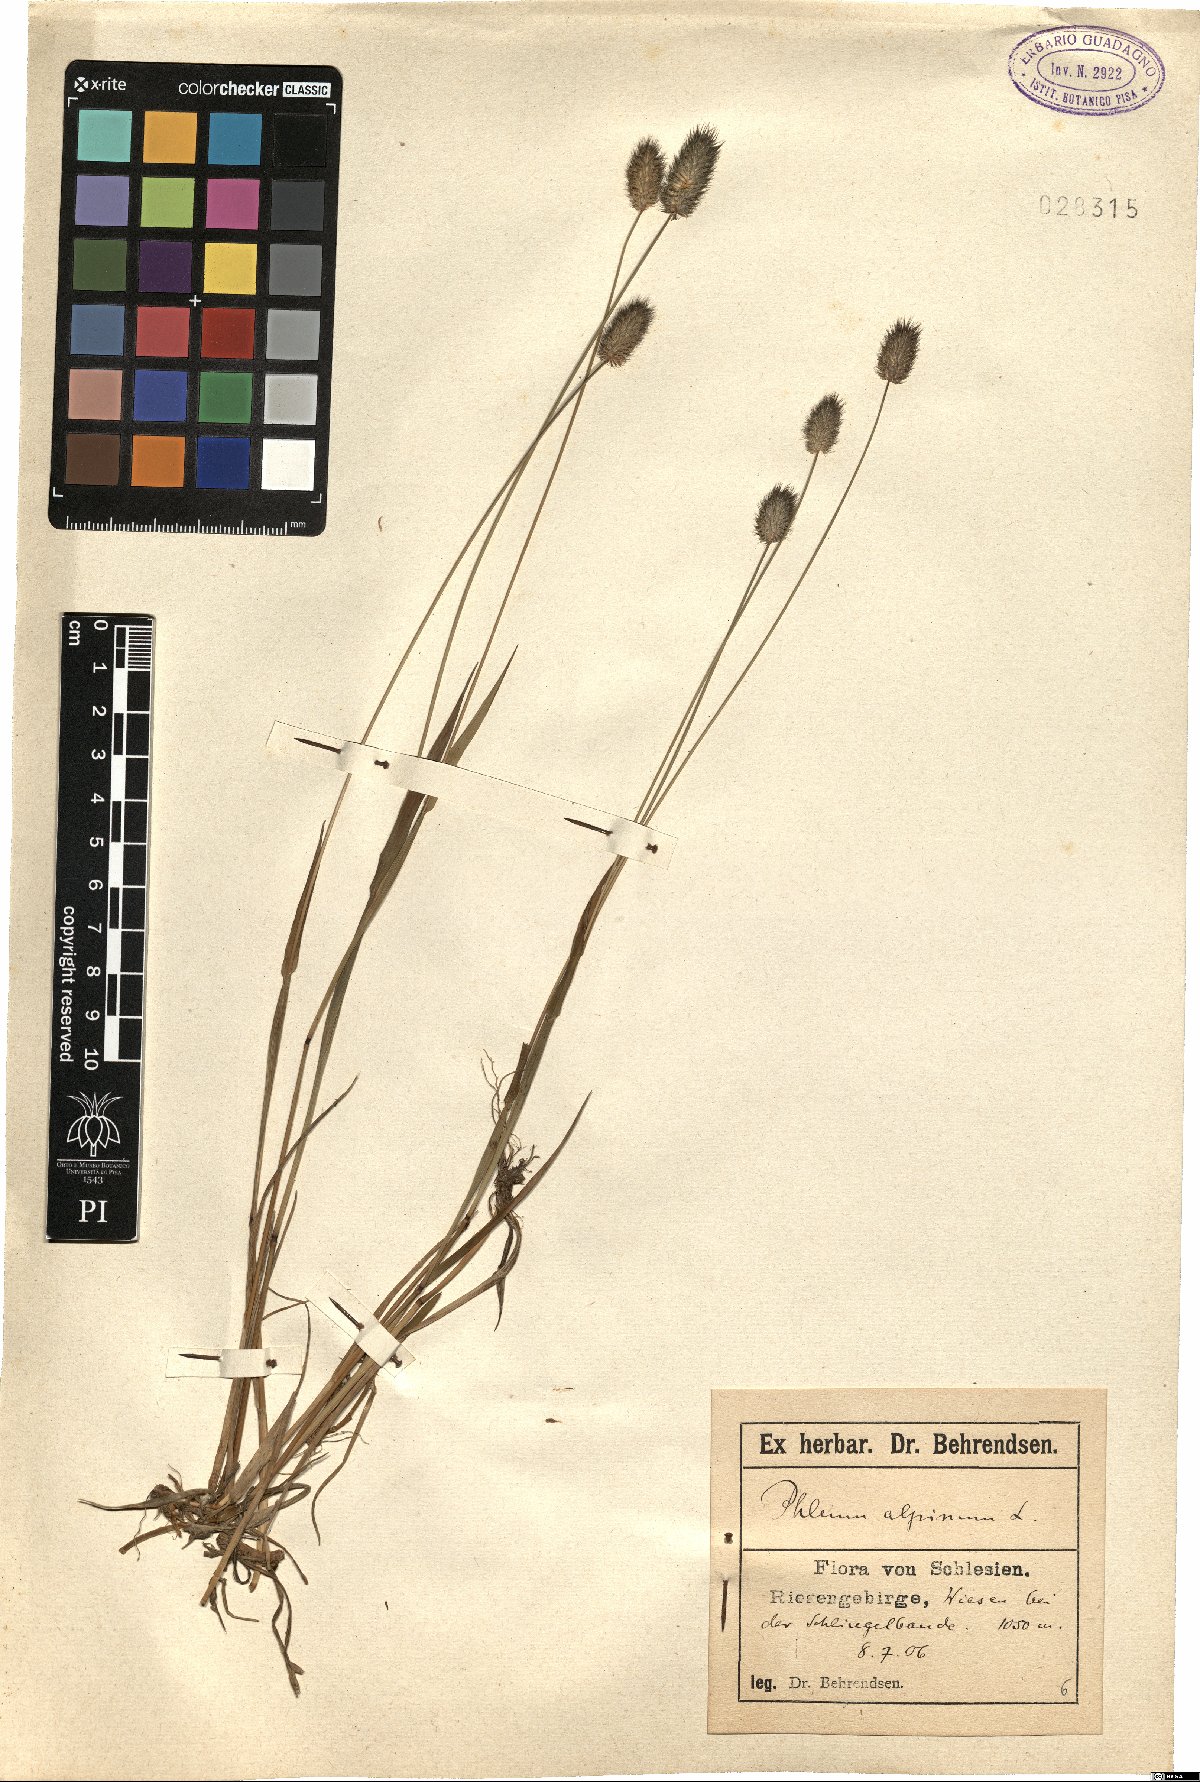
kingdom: Plantae
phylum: Tracheophyta
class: Liliopsida
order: Poales
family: Poaceae
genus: Phleum
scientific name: Phleum alpinum
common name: Alpine cat's-tail
